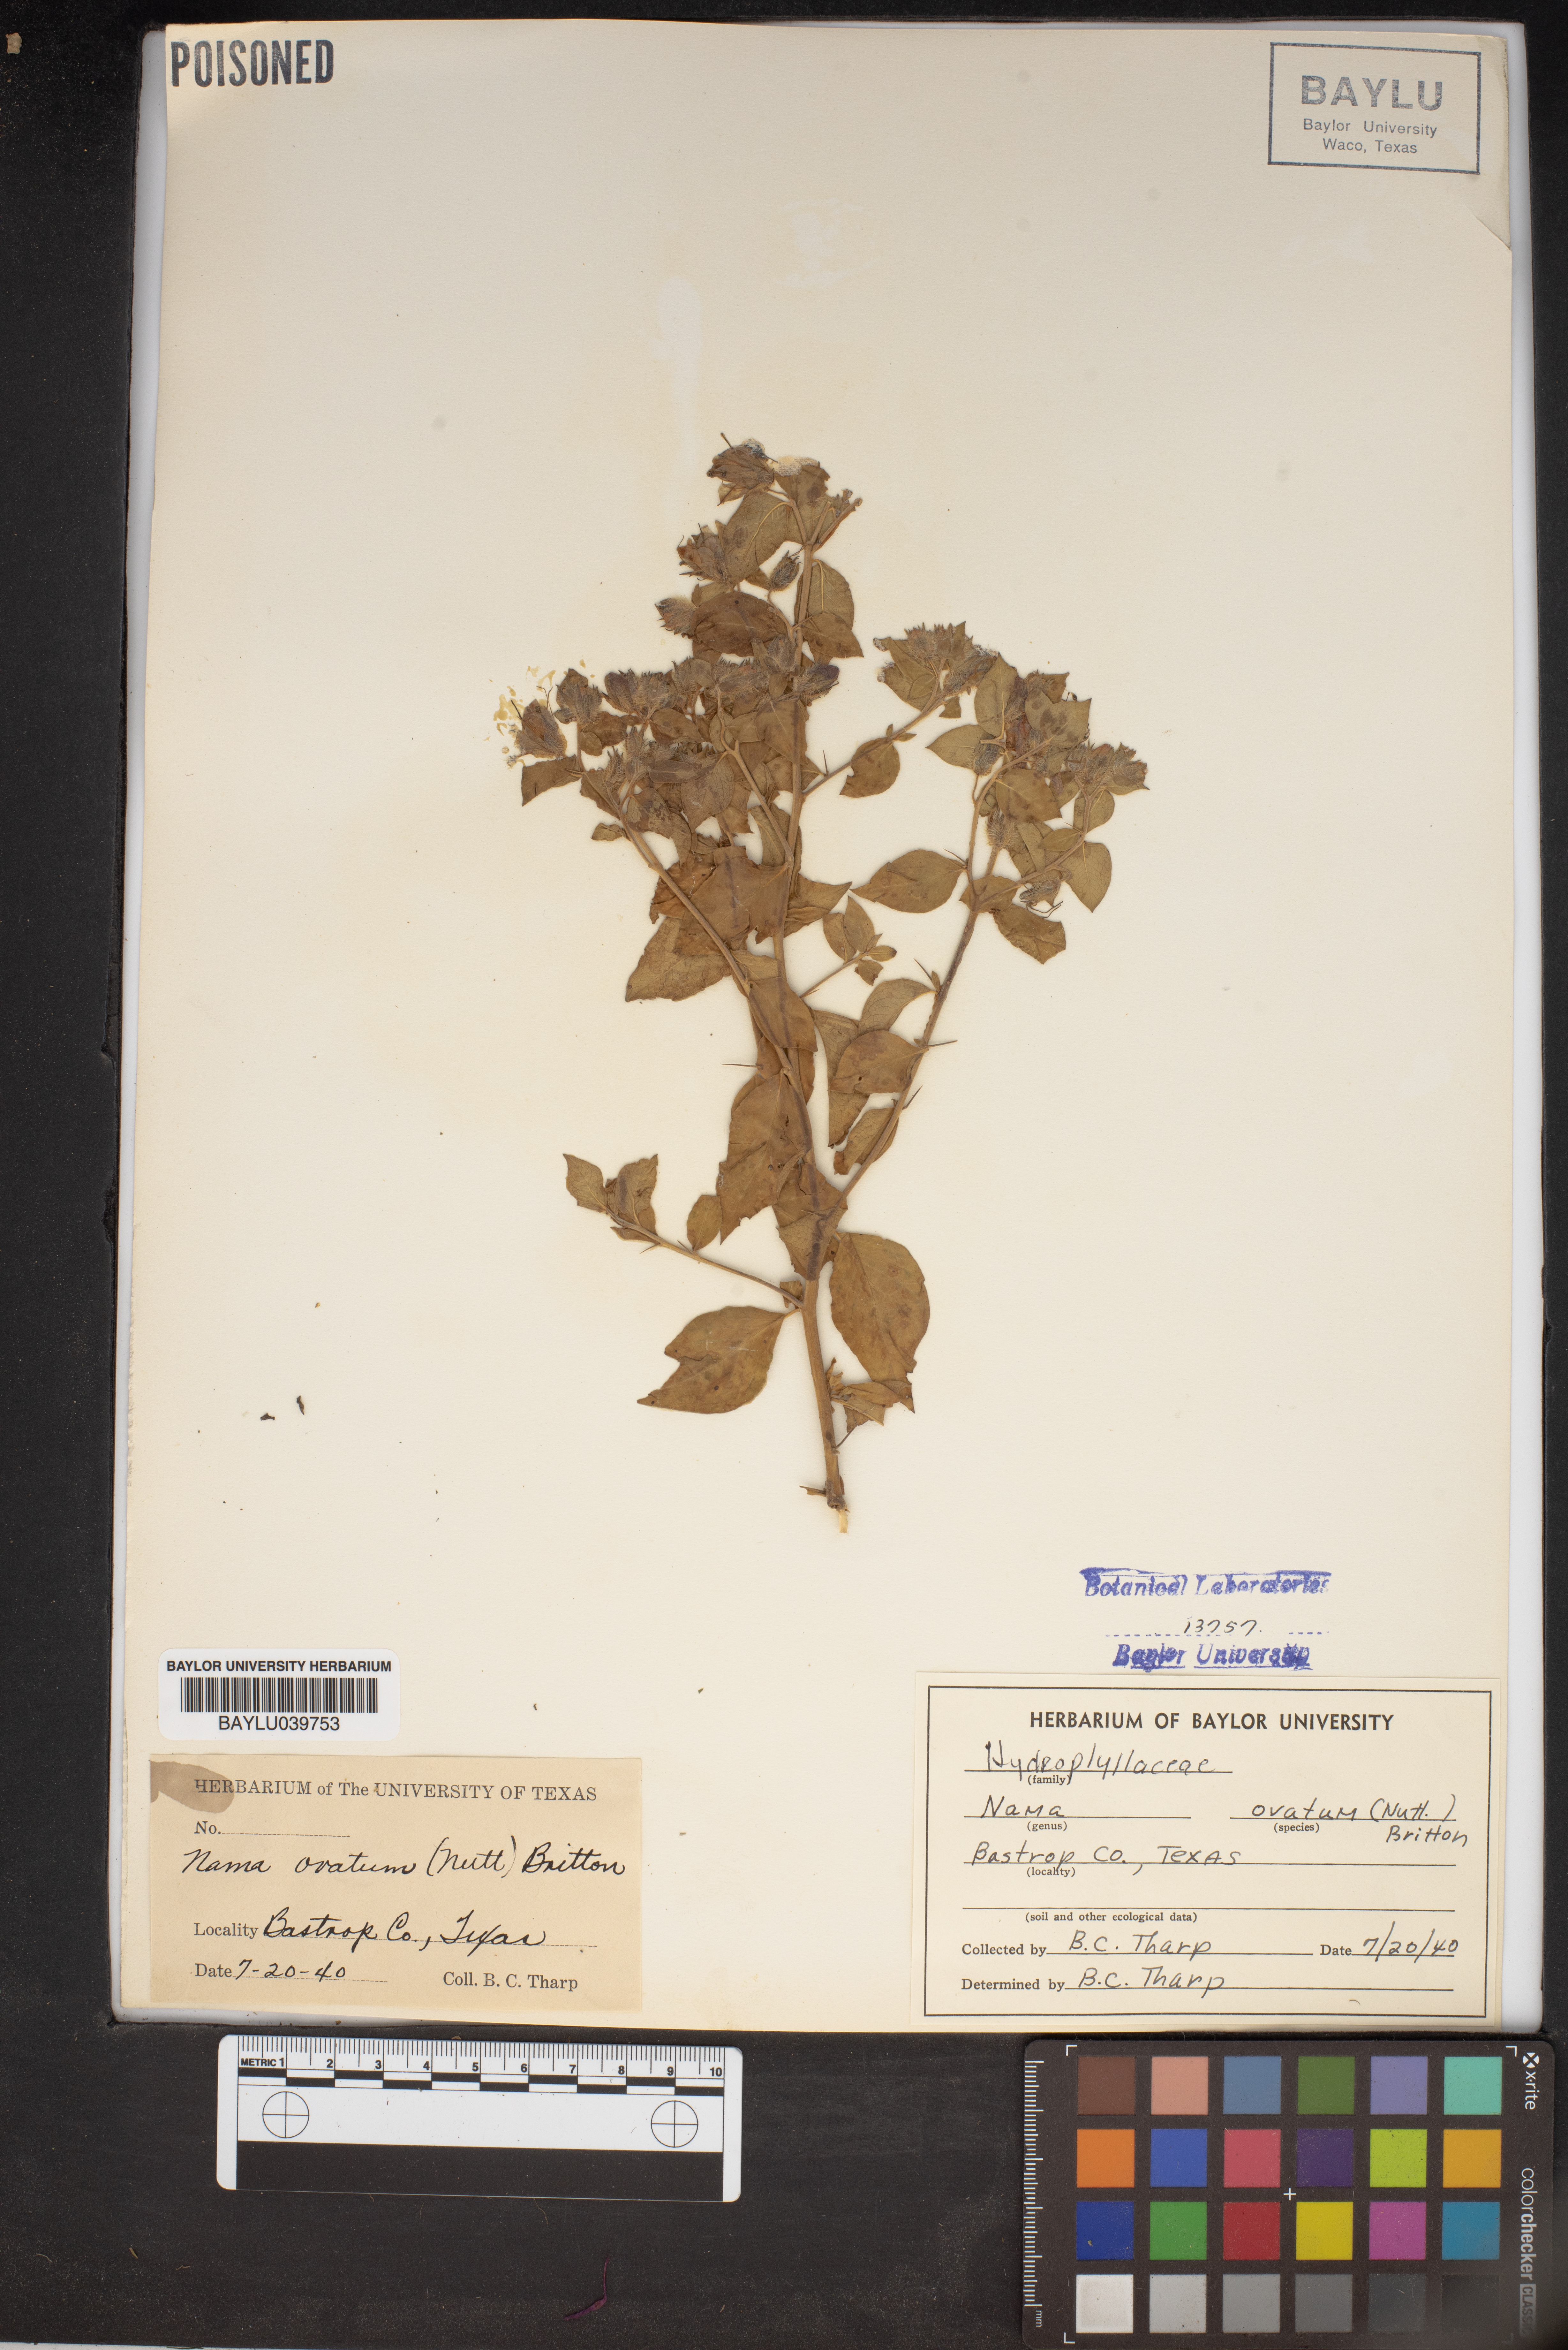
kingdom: Plantae
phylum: Tracheophyta
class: Magnoliopsida
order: Solanales
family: Hydroleaceae
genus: Hydrolea
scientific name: Hydrolea ovata
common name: Ovate false fiddleleaf
